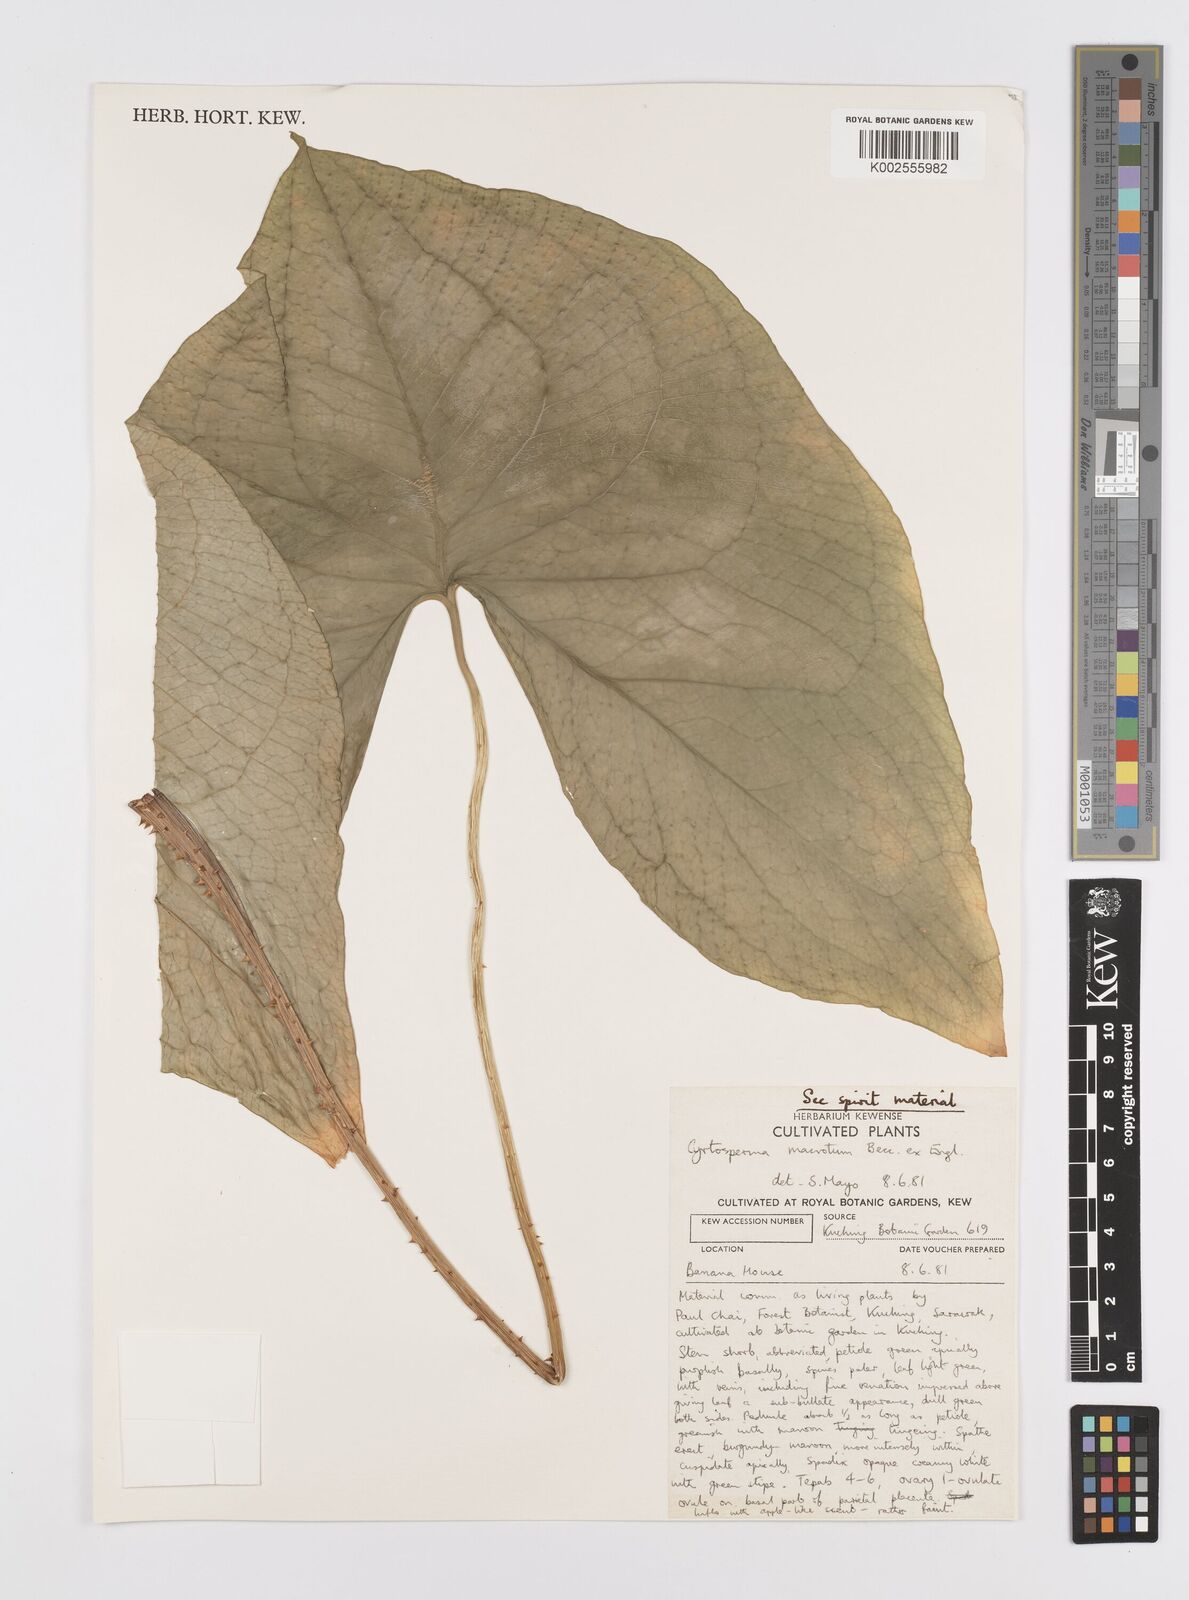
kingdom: Plantae
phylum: Tracheophyta
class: Liliopsida
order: Alismatales
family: Araceae
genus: Cyrtosperma
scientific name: Cyrtosperma macrotum
